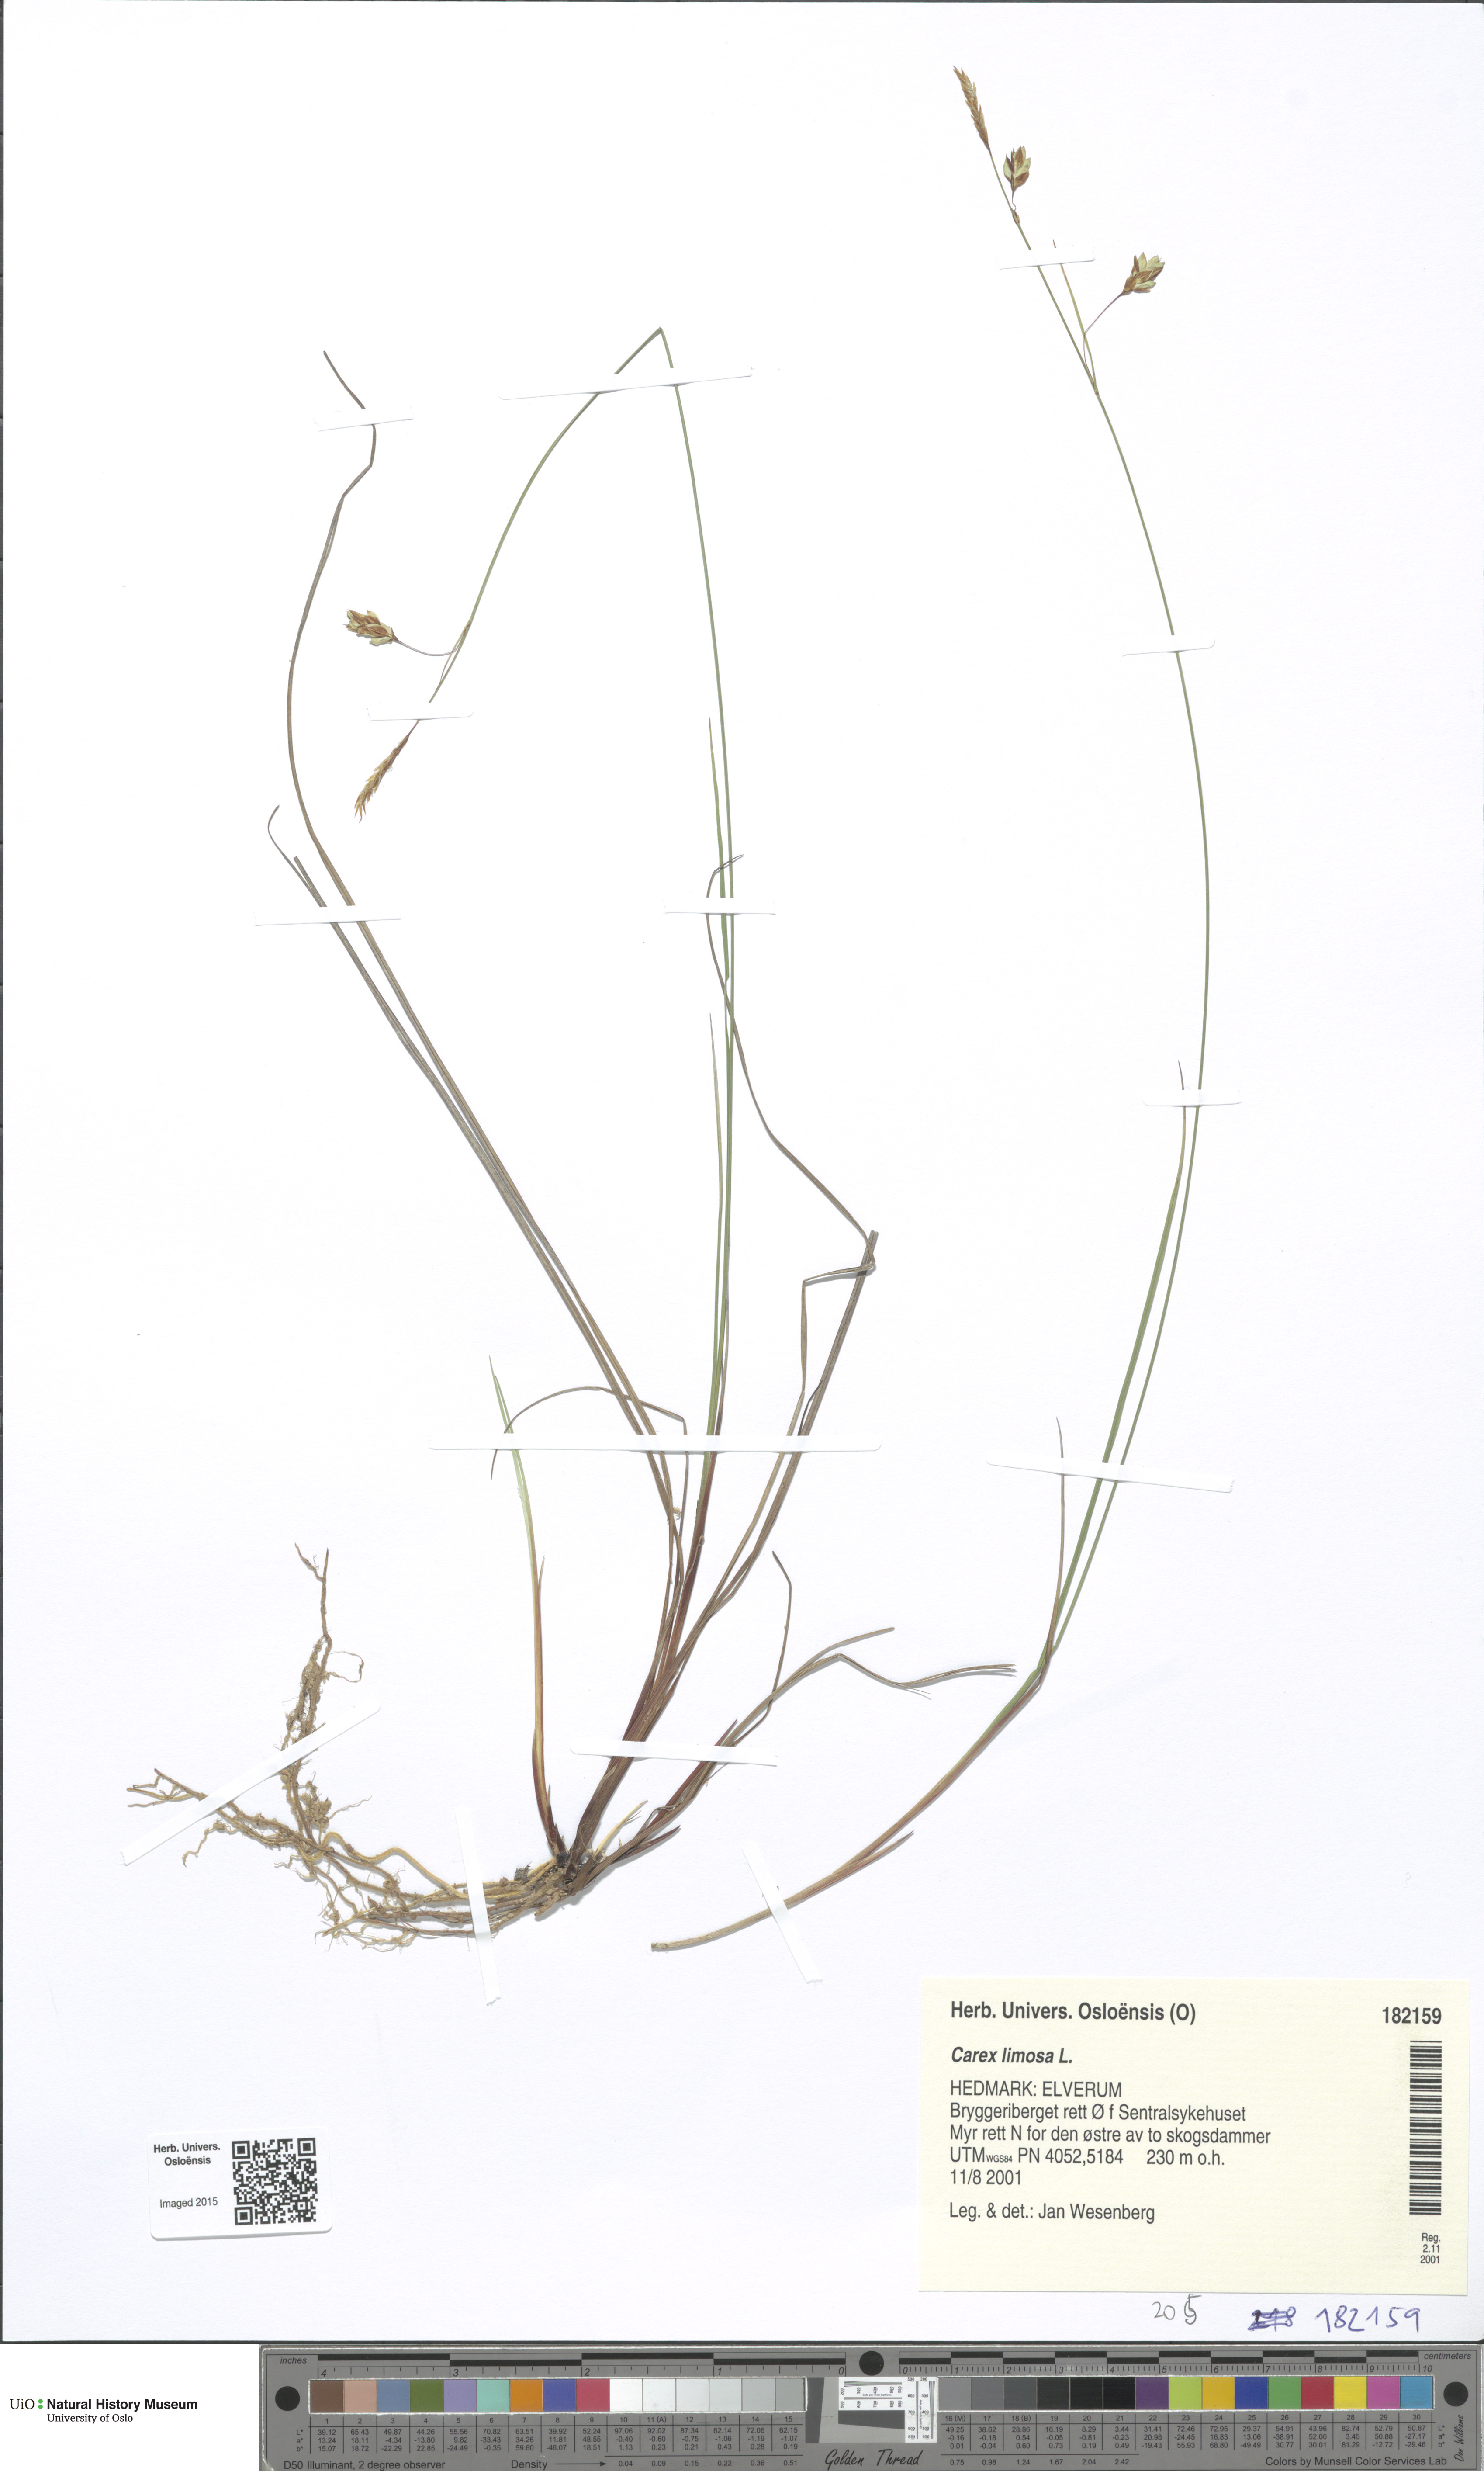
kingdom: Plantae
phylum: Tracheophyta
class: Liliopsida
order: Poales
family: Cyperaceae
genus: Carex
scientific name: Carex limosa
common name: Bog sedge
